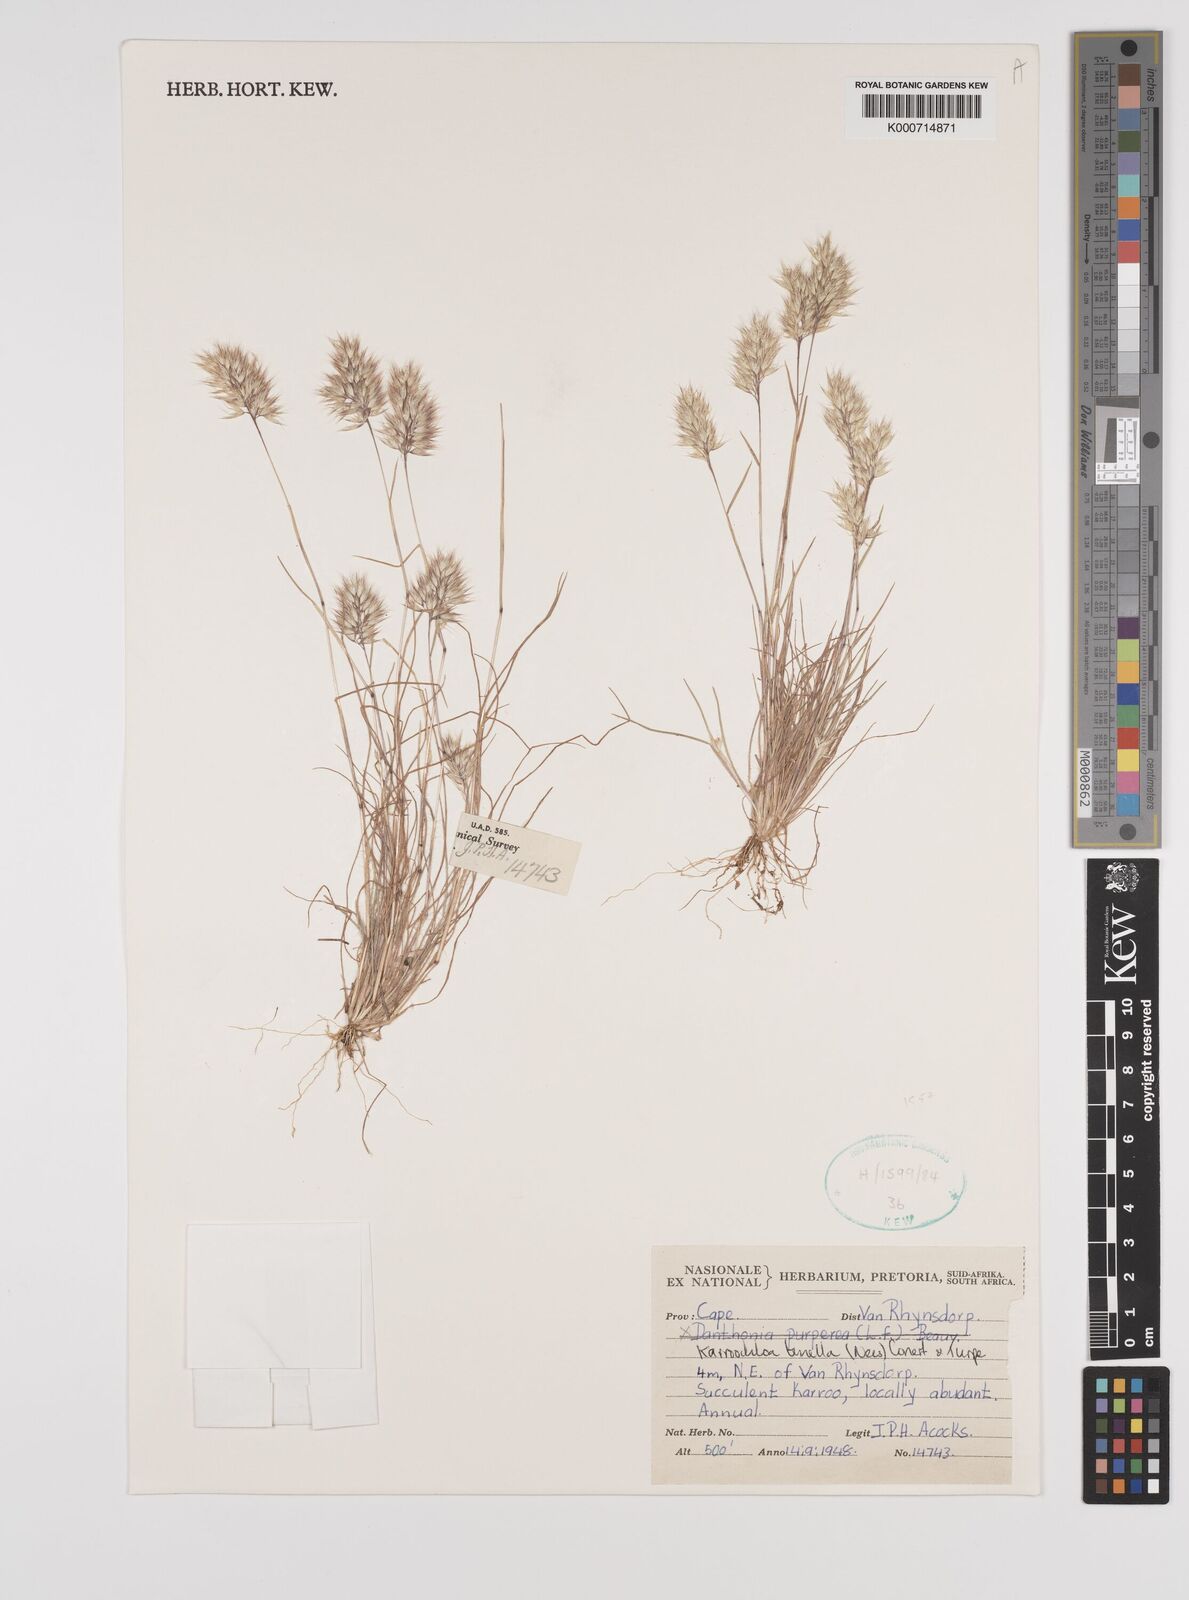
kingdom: Plantae
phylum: Tracheophyta
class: Liliopsida
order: Poales
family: Poaceae
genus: Rytidosperma
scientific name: Rytidosperma
